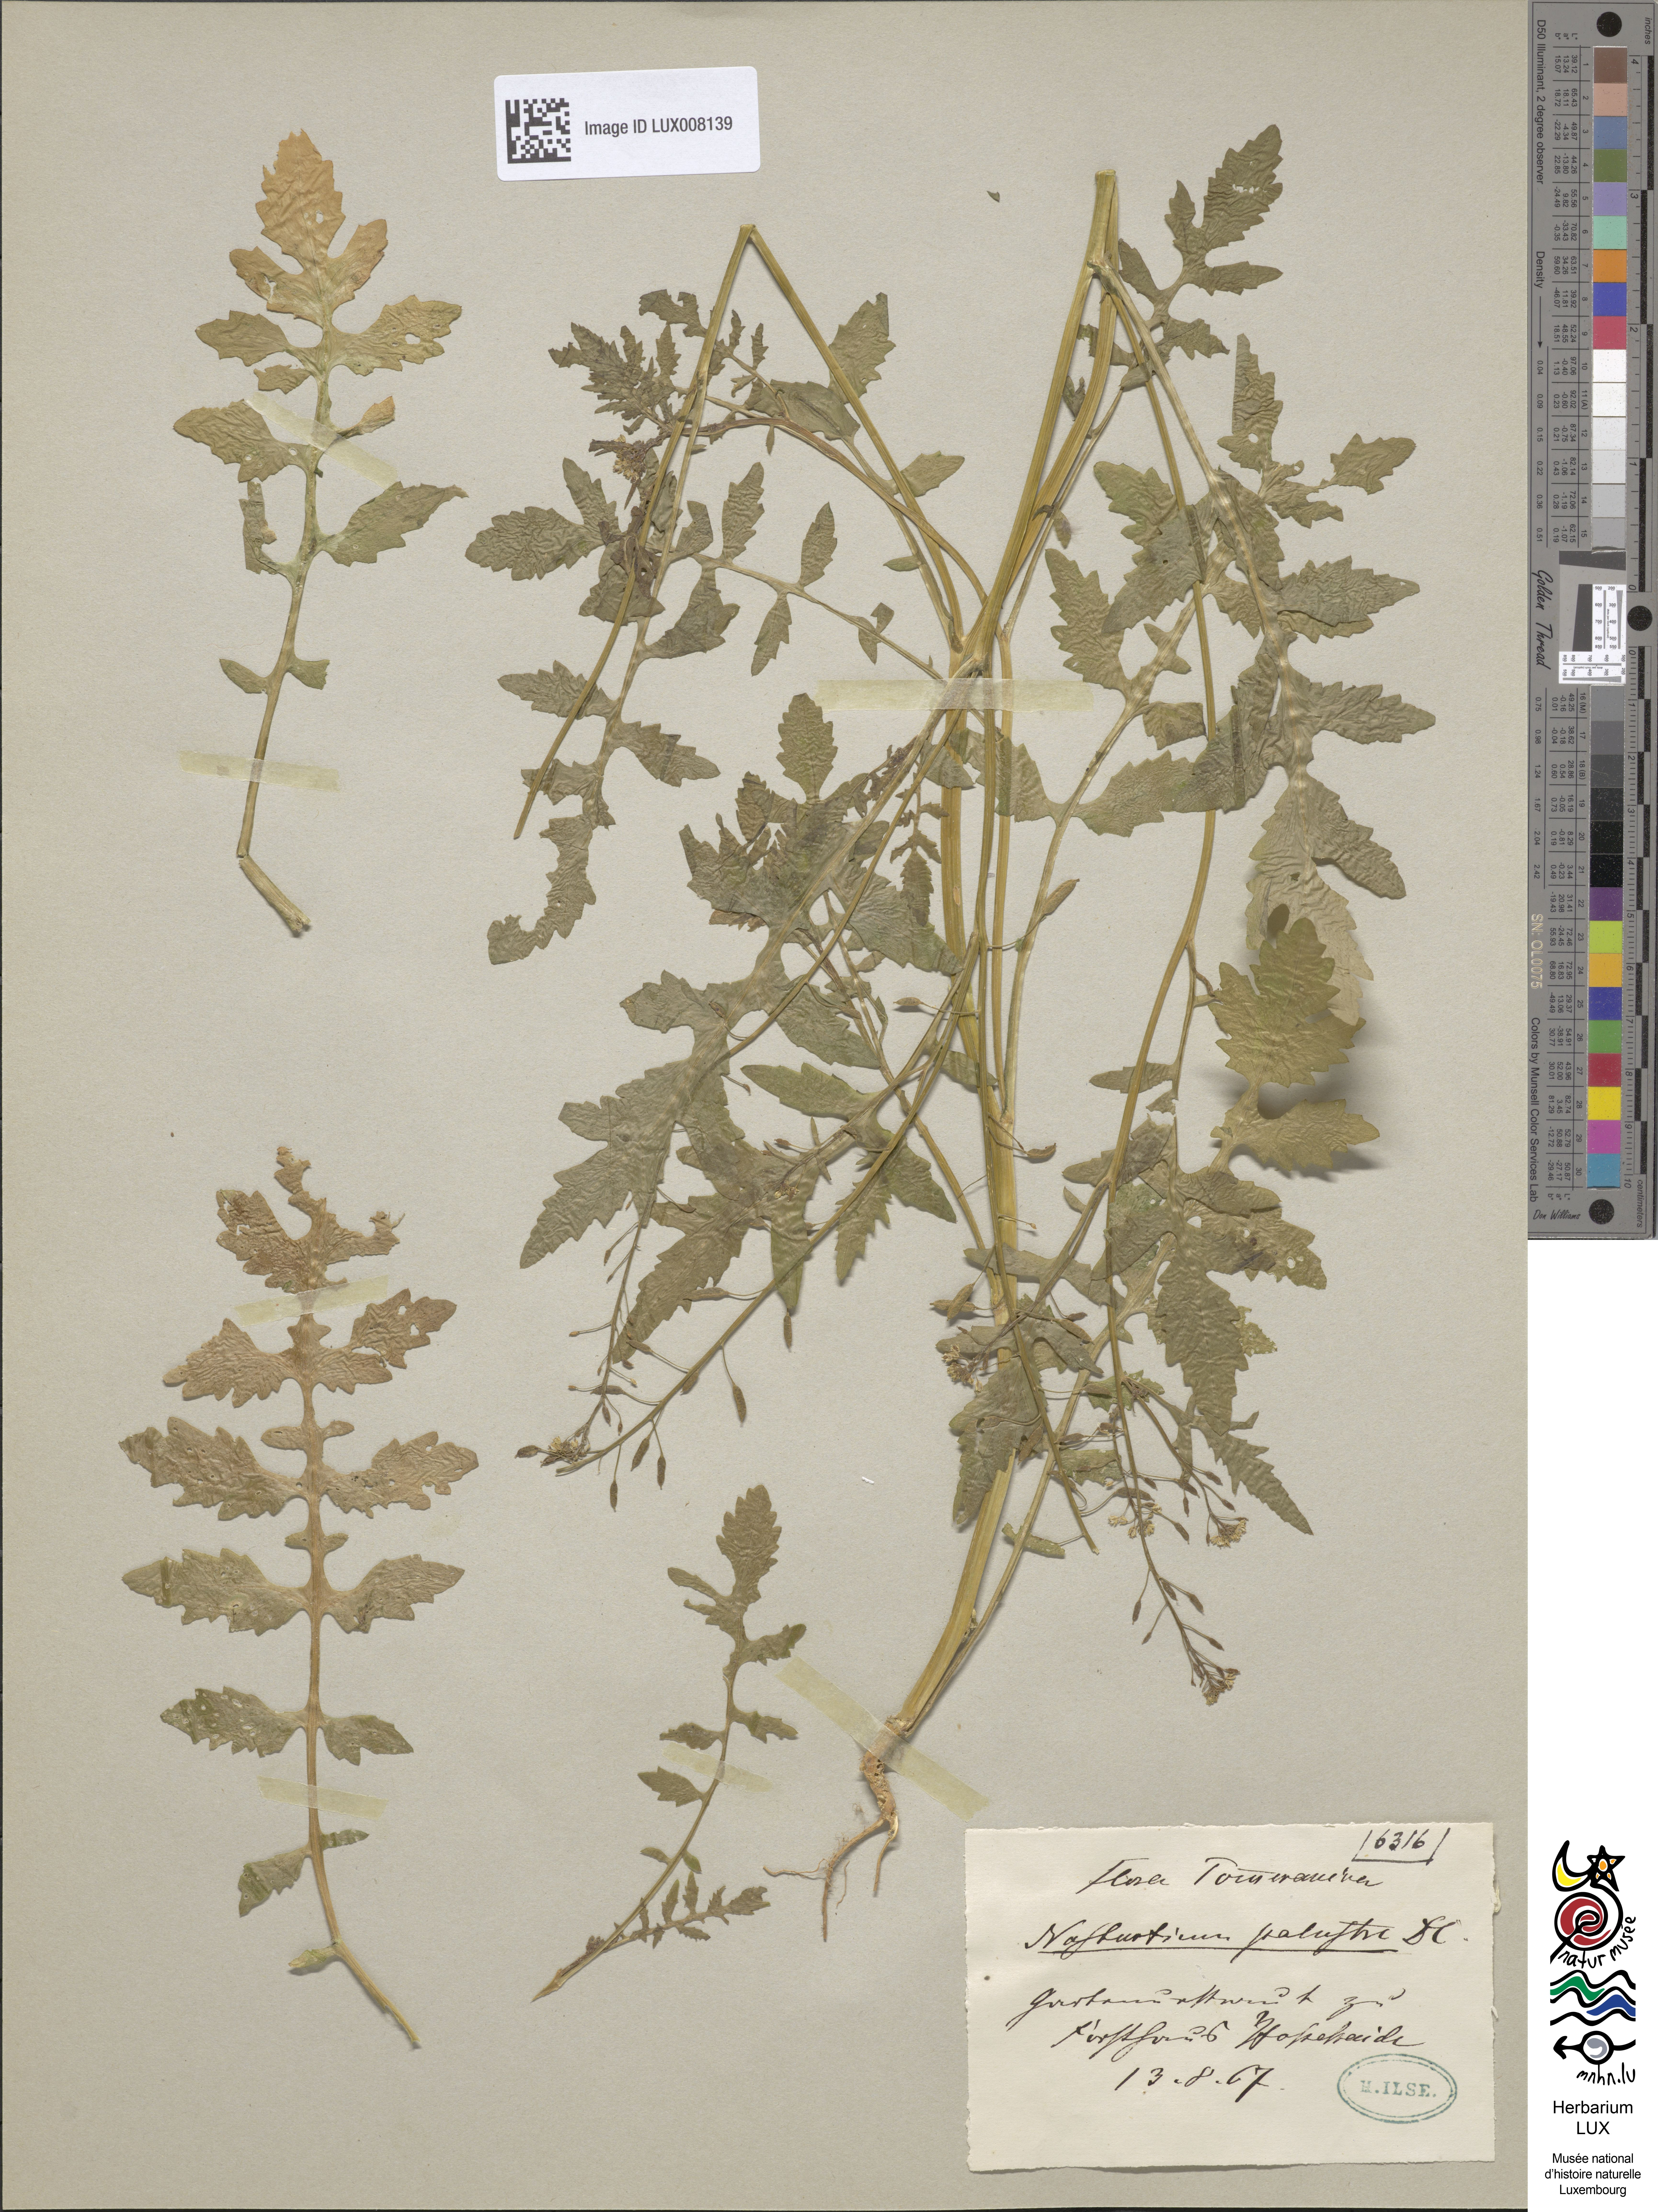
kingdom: Plantae
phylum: Tracheophyta
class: Magnoliopsida
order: Brassicales
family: Brassicaceae
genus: Rorippa
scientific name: Rorippa islandica
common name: Marsh cress
